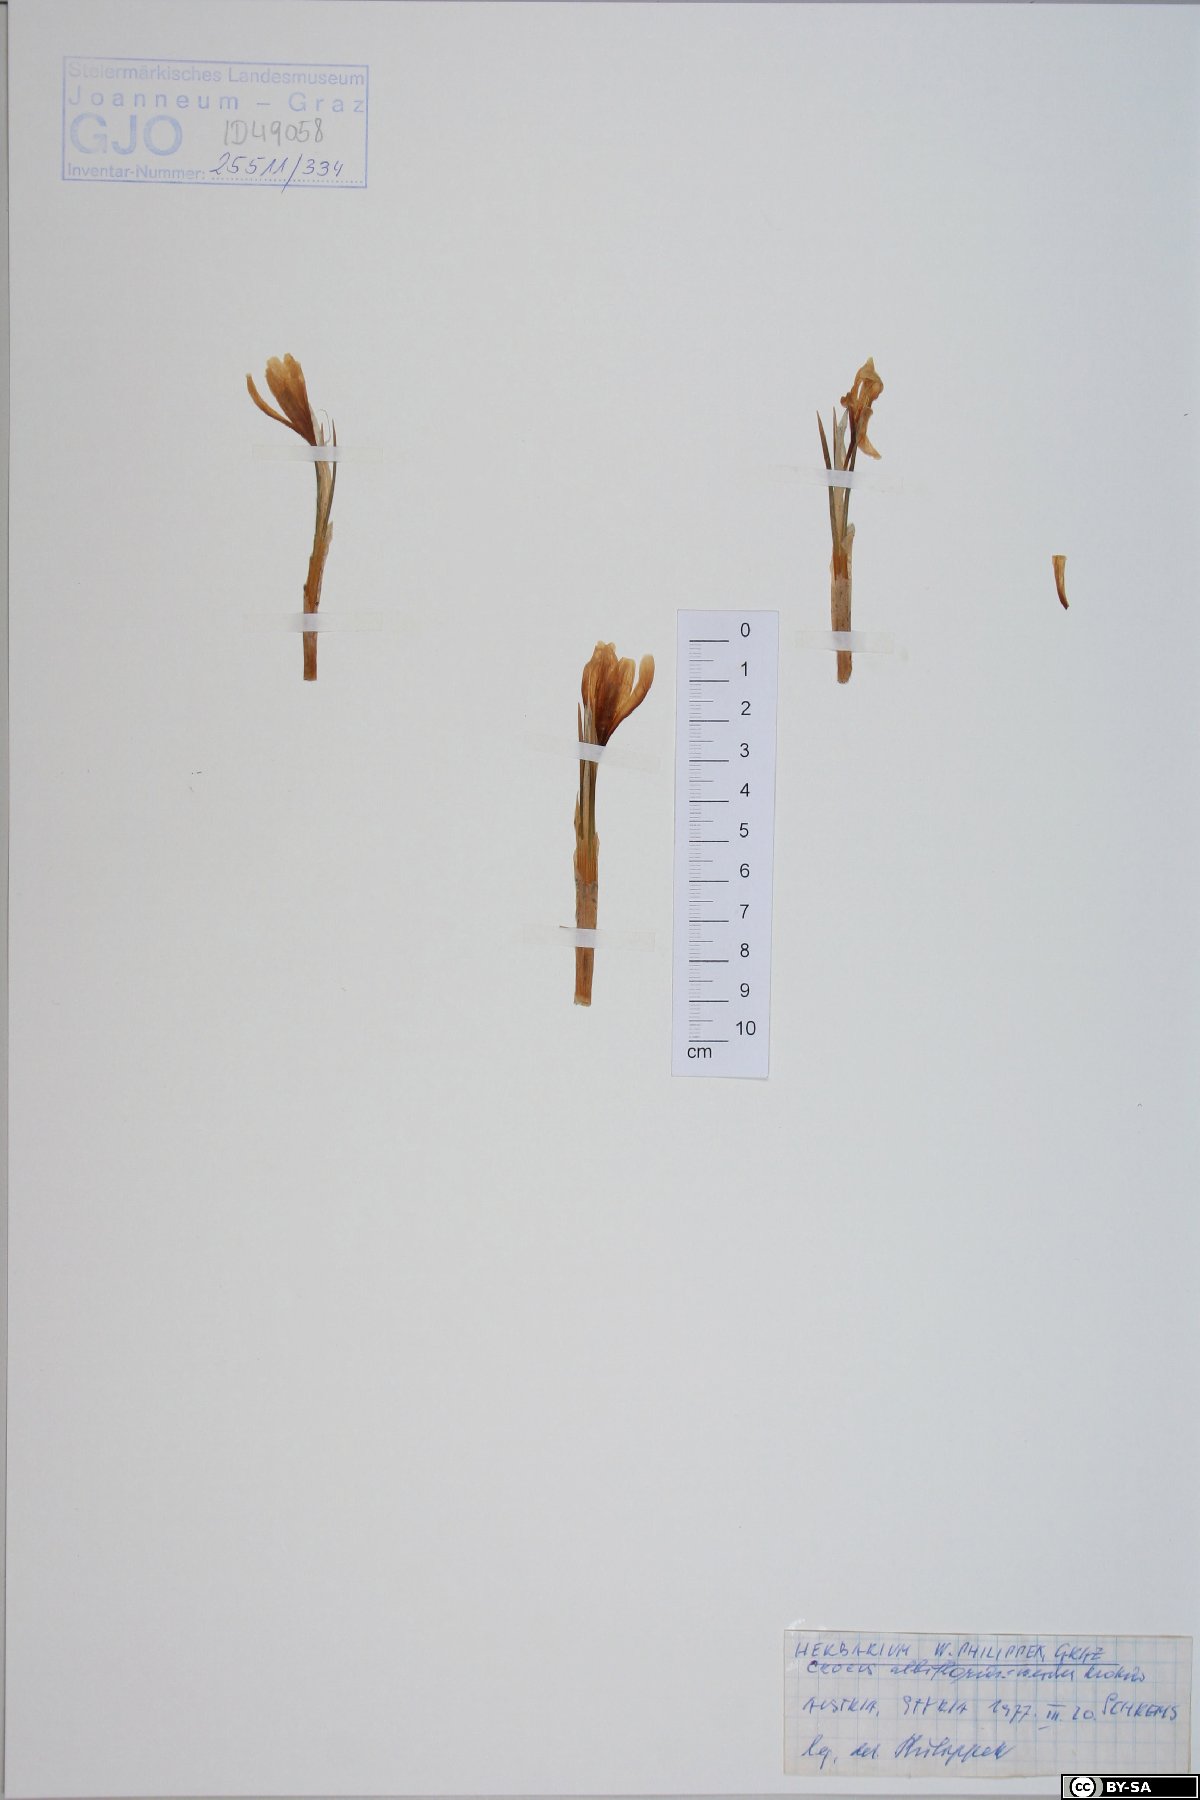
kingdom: Plantae
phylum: Tracheophyta
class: Liliopsida
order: Asparagales
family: Iridaceae
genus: Crocus
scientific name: Crocus vernus
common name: Spring crocus
